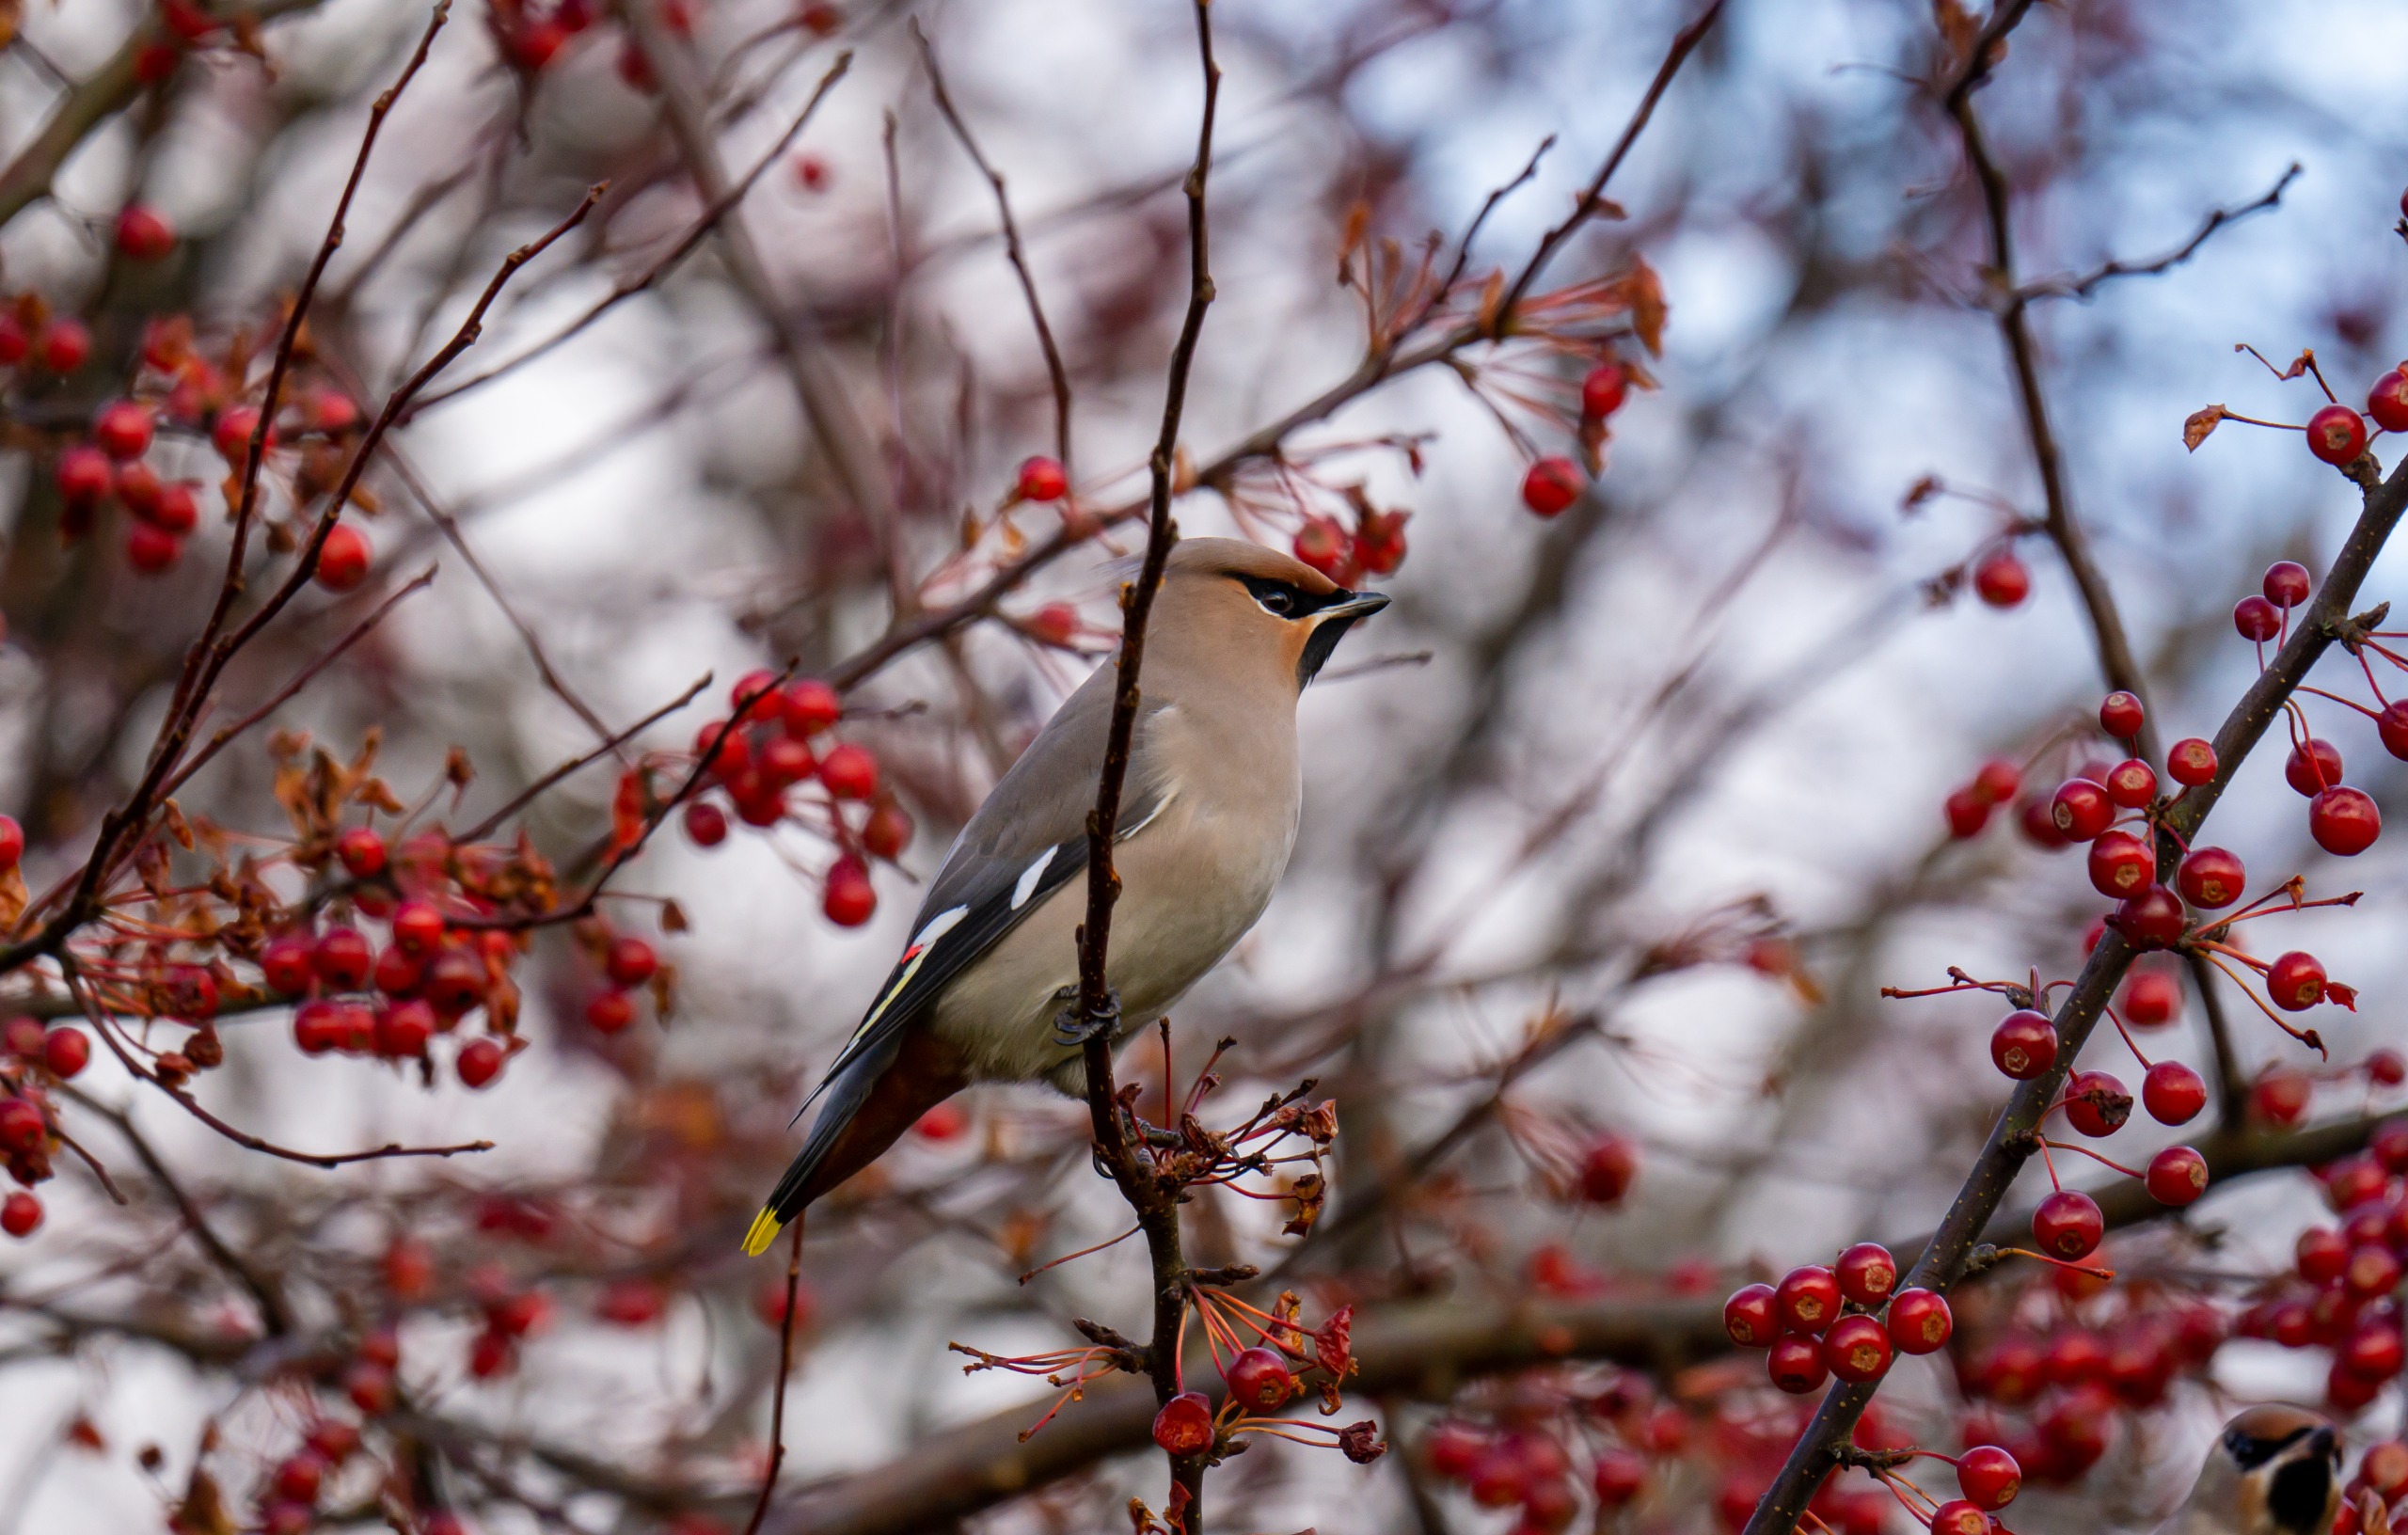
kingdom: Animalia
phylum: Chordata
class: Aves
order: Passeriformes
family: Bombycillidae
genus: Bombycilla
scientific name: Bombycilla garrulus
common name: Silkehale
